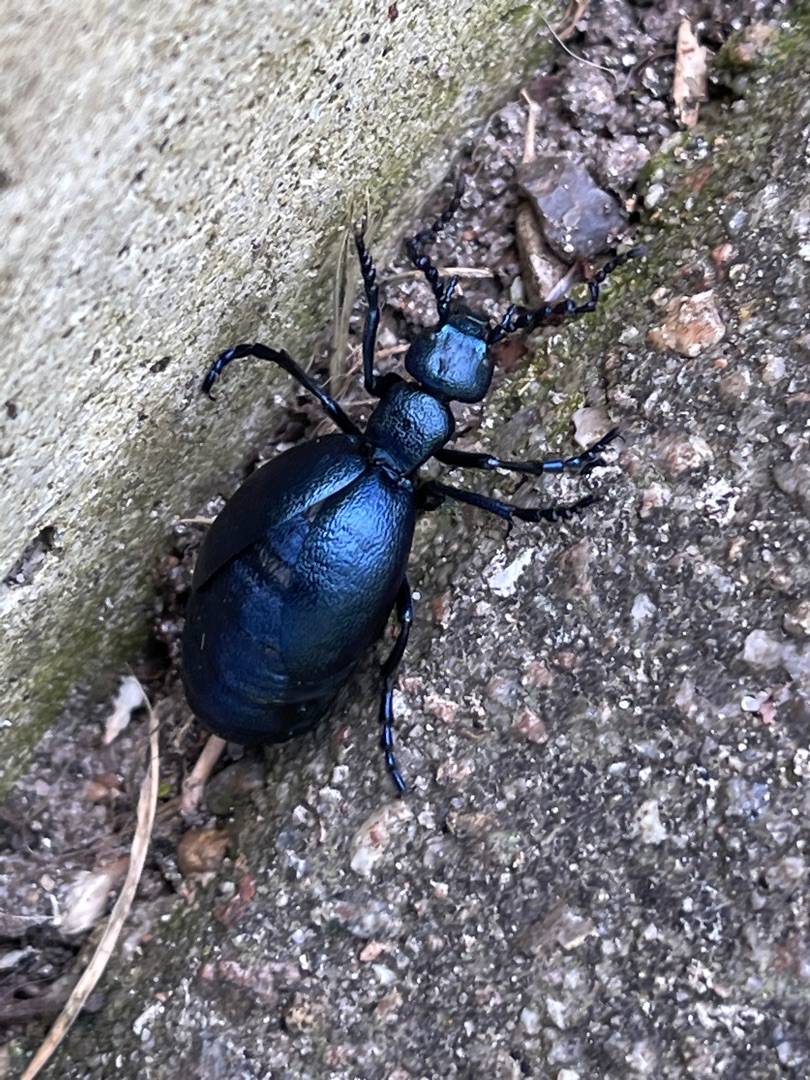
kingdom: Animalia
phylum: Arthropoda
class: Insecta
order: Coleoptera
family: Meloidae
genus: Meloe
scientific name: Meloe violaceus
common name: Blå oliebille
